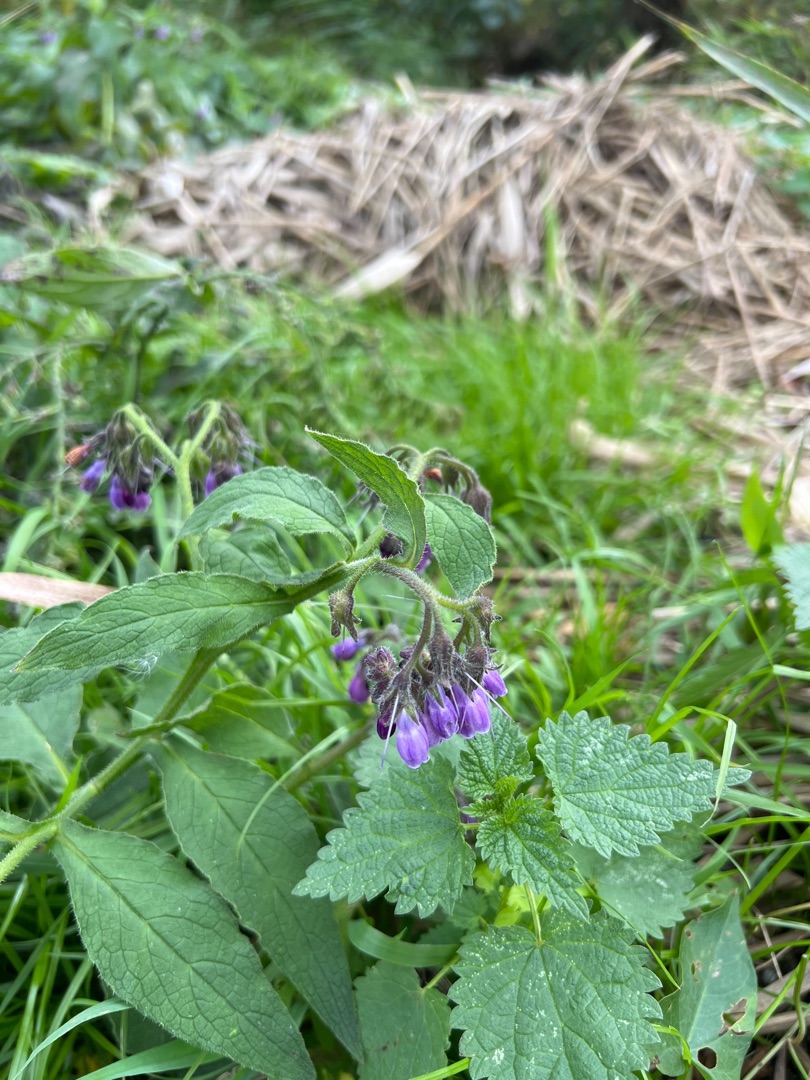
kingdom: Plantae
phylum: Tracheophyta
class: Magnoliopsida
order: Boraginales
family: Boraginaceae
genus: Symphytum
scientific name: Symphytum uplandicum
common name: Foder-kulsukker
